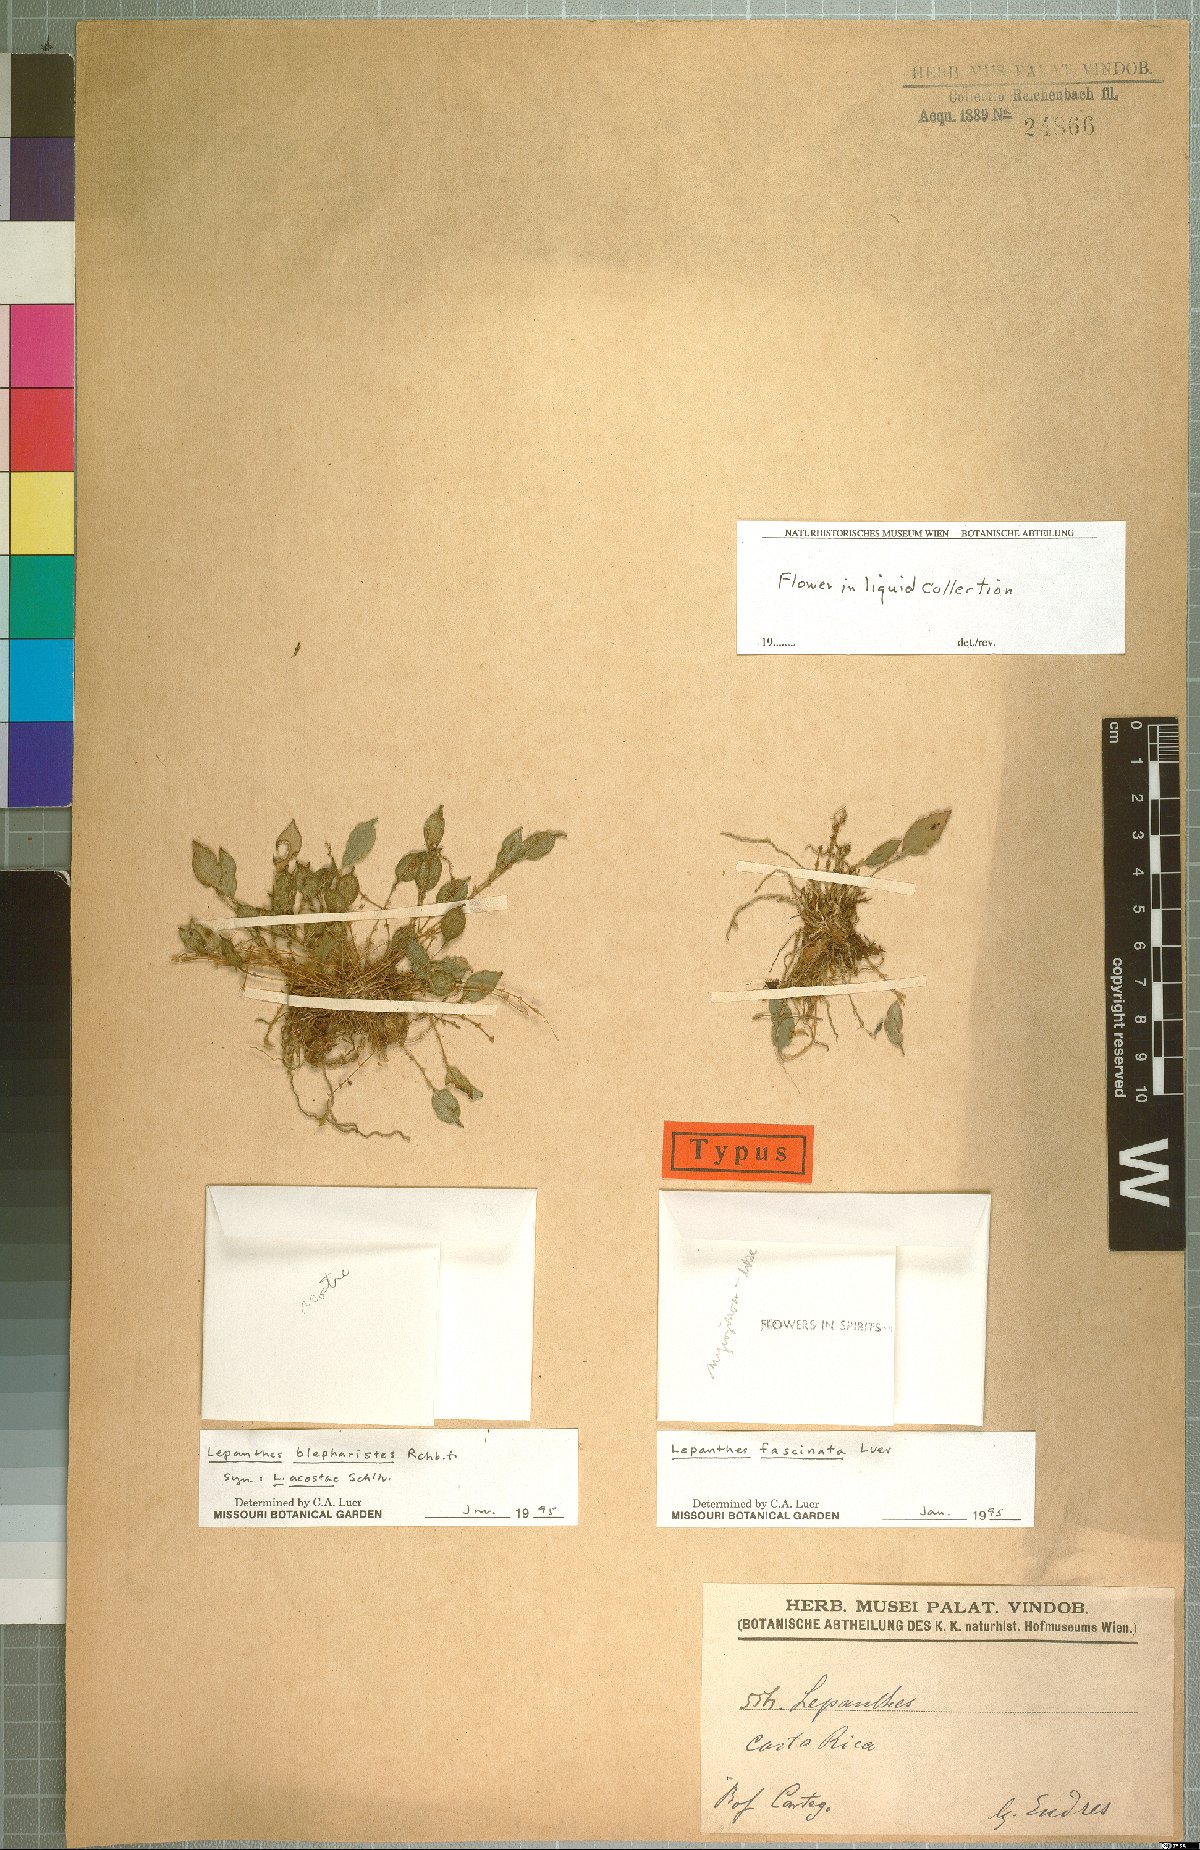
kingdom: Plantae
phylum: Tracheophyta
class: Liliopsida
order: Asparagales
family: Orchidaceae
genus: Lepanthes
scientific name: Lepanthes fascinata
